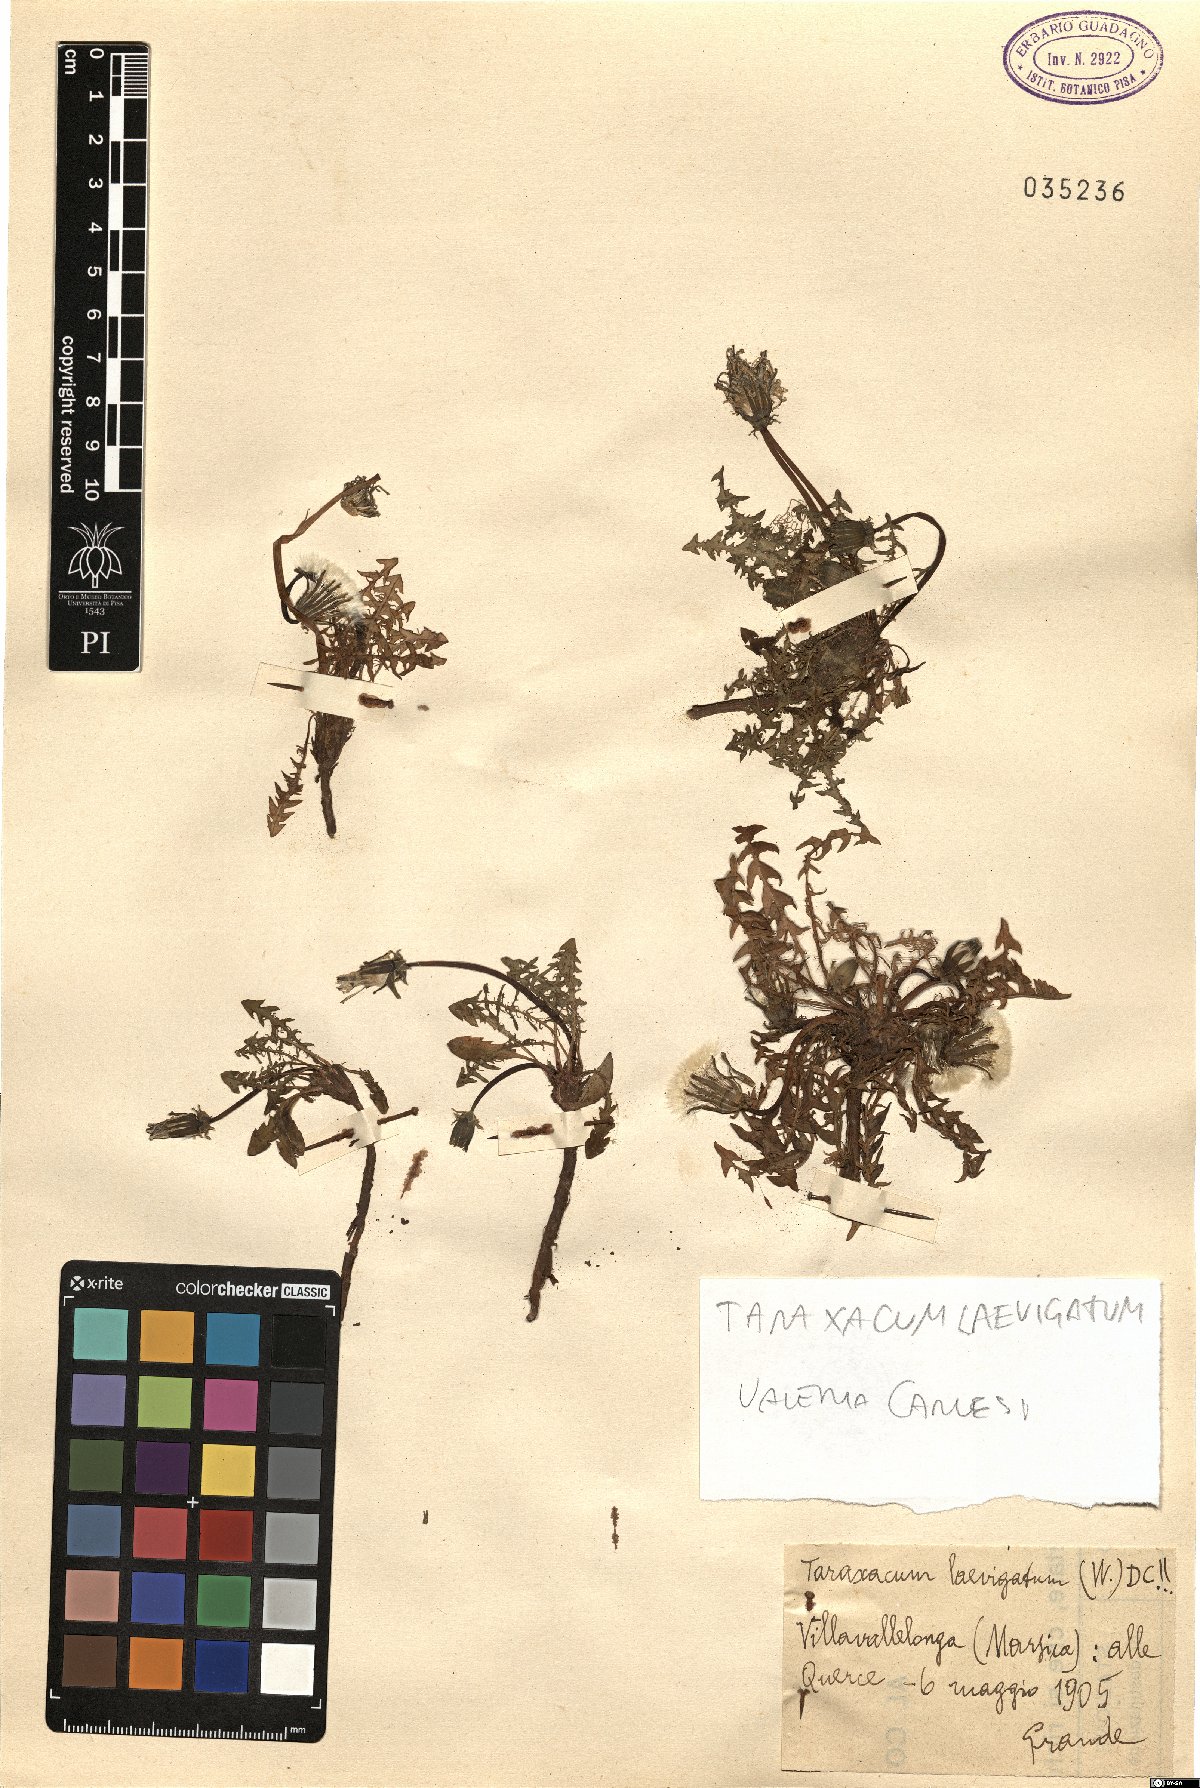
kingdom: Plantae
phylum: Tracheophyta
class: Magnoliopsida
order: Asterales
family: Asteraceae
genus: Taraxacum
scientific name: Taraxacum erythrospermum
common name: Rock dandelion
